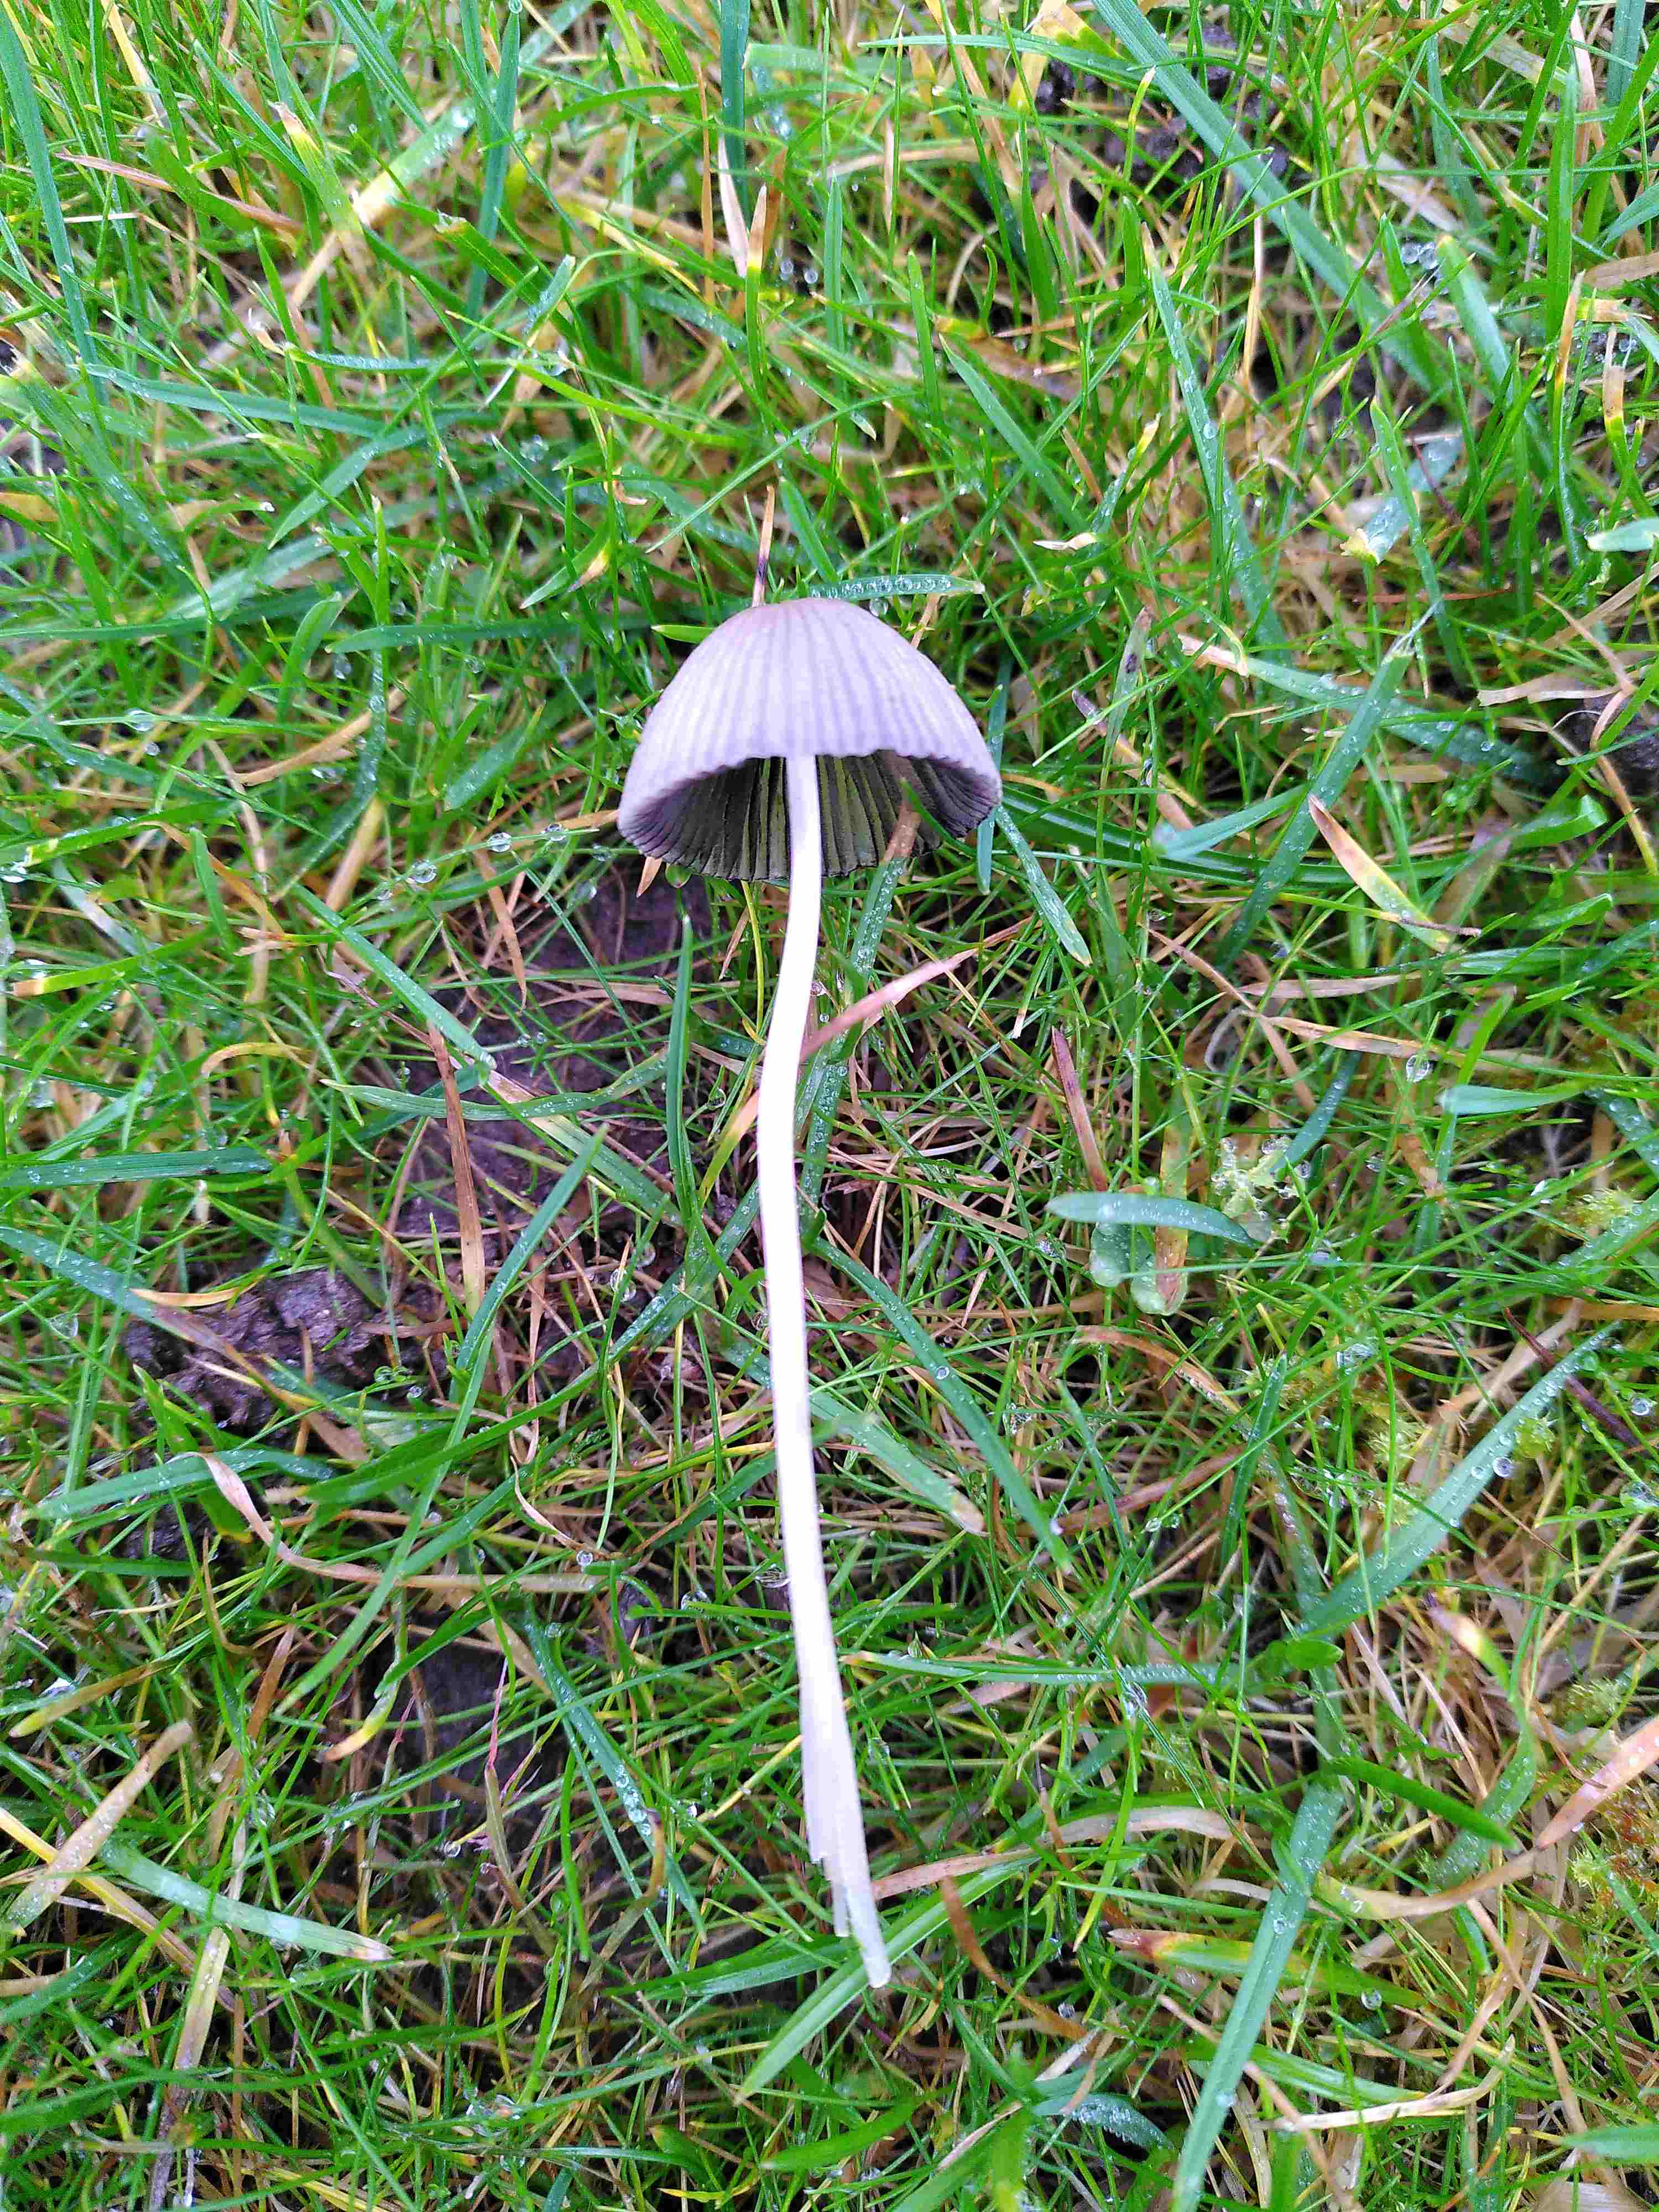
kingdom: Fungi
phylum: Basidiomycota
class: Agaricomycetes
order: Agaricales
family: Psathyrellaceae
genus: Parasola
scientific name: Parasola
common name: hjulhat
